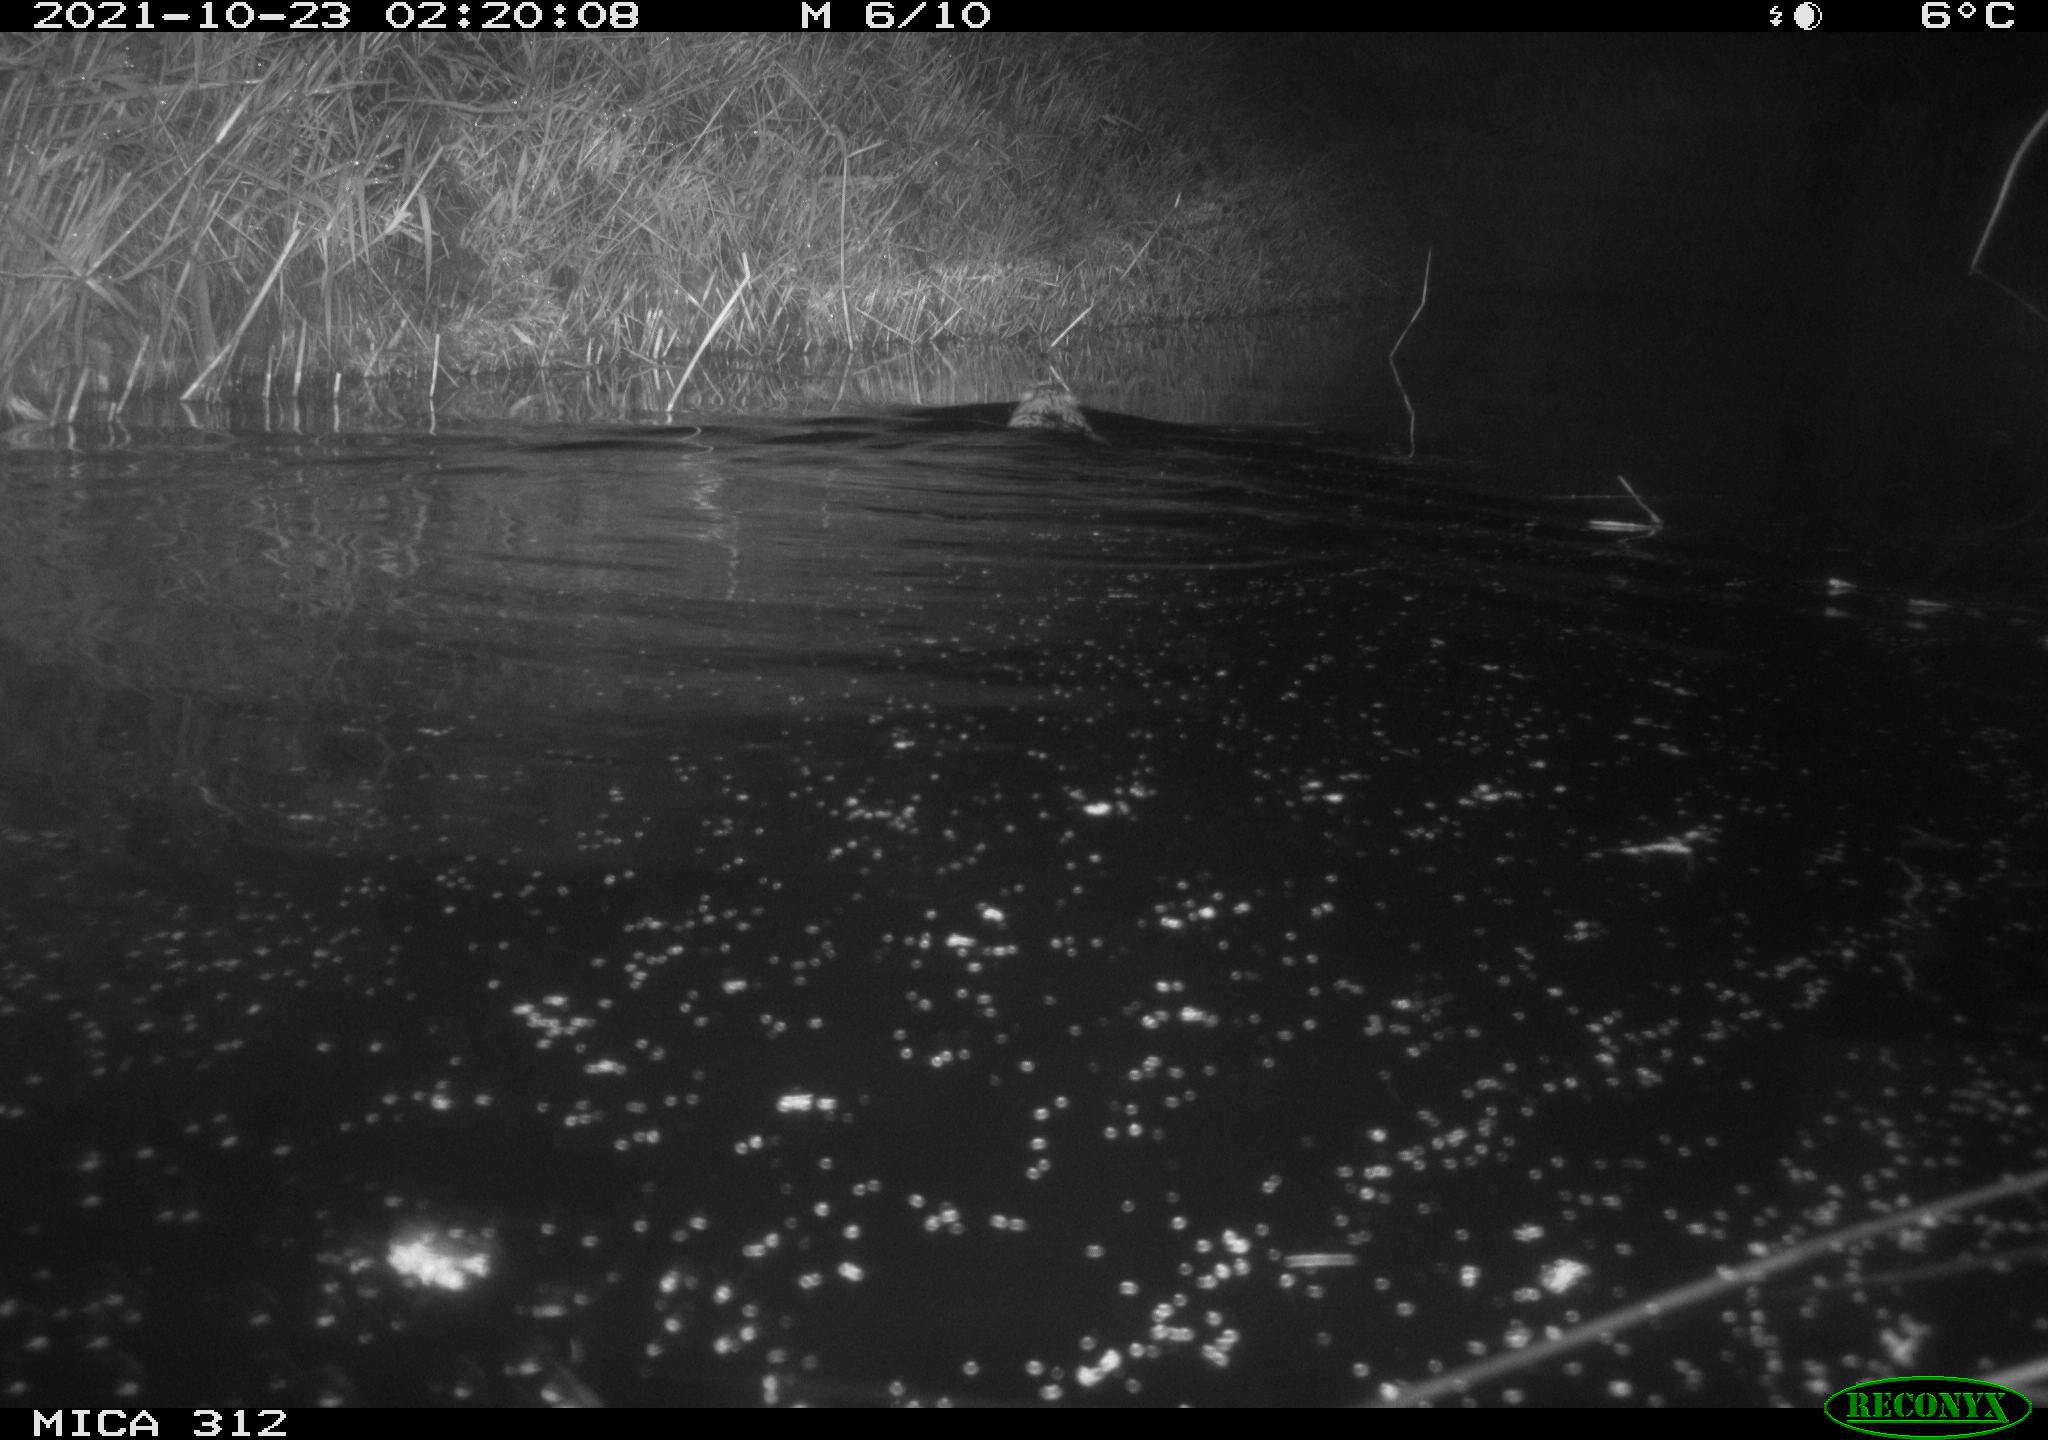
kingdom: Animalia
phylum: Chordata
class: Mammalia
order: Rodentia
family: Cricetidae
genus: Ondatra
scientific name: Ondatra zibethicus
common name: Muskrat
